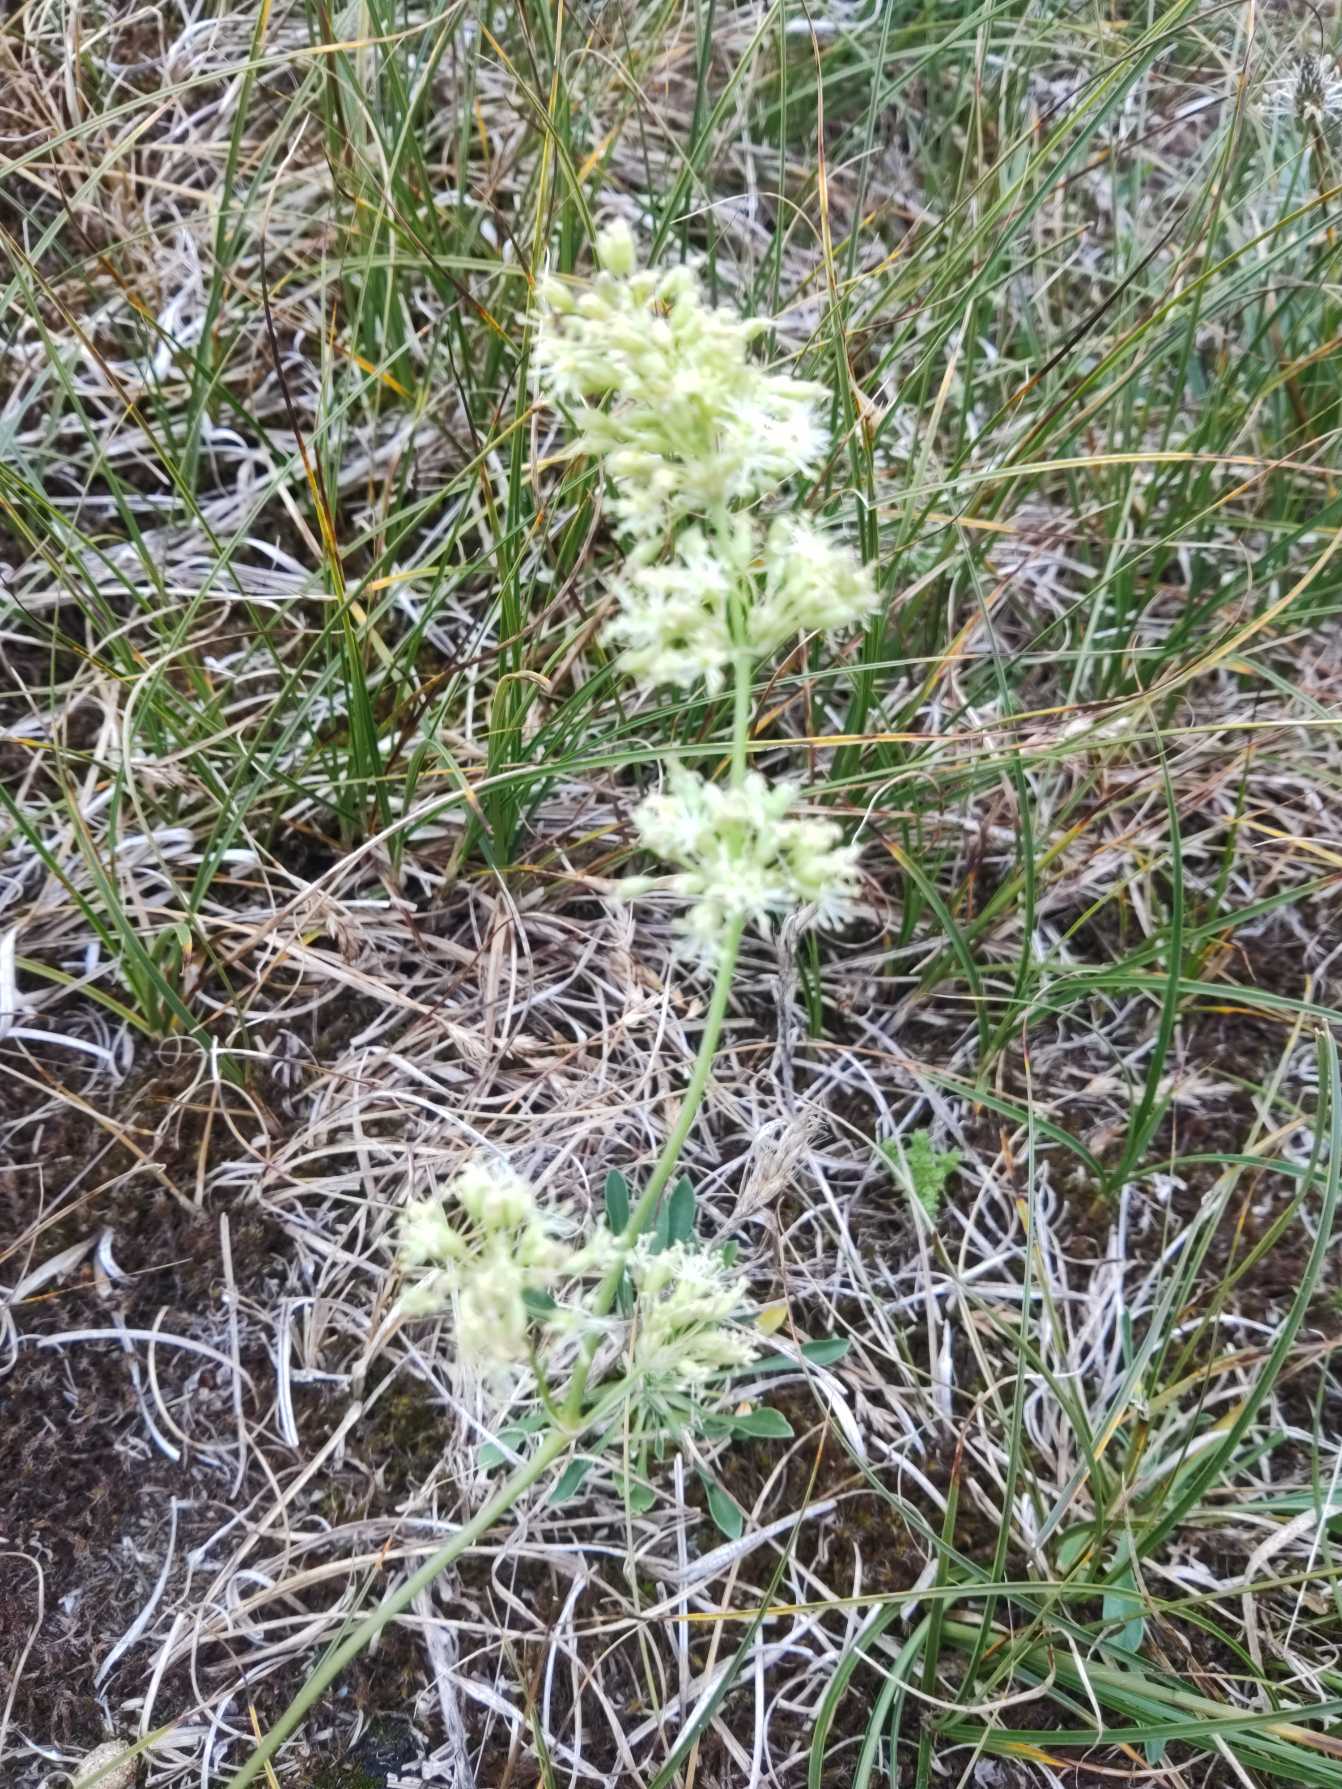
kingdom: Plantae
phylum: Tracheophyta
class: Magnoliopsida
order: Caryophyllales
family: Caryophyllaceae
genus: Silene
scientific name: Silene otites
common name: Klit-limurt
